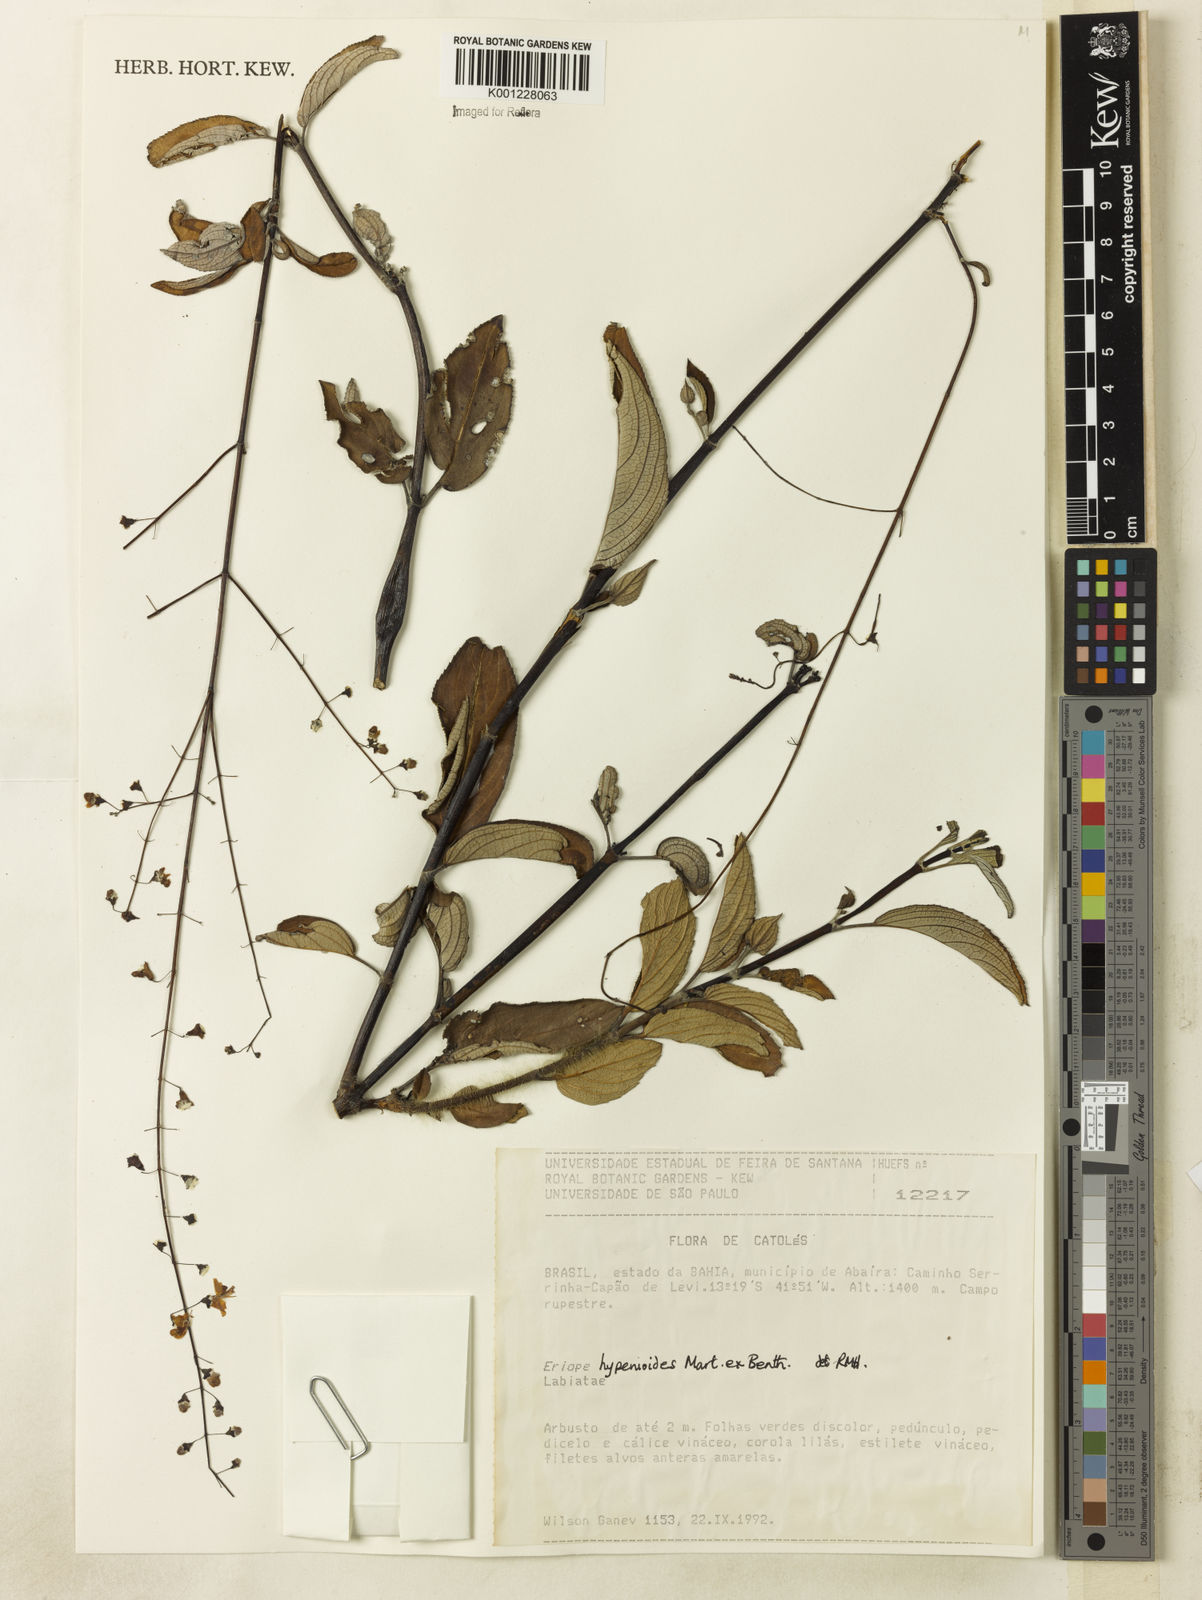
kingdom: Plantae
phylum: Tracheophyta
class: Magnoliopsida
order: Lamiales
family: Lamiaceae
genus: Eriope
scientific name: Eriope hypenioides
